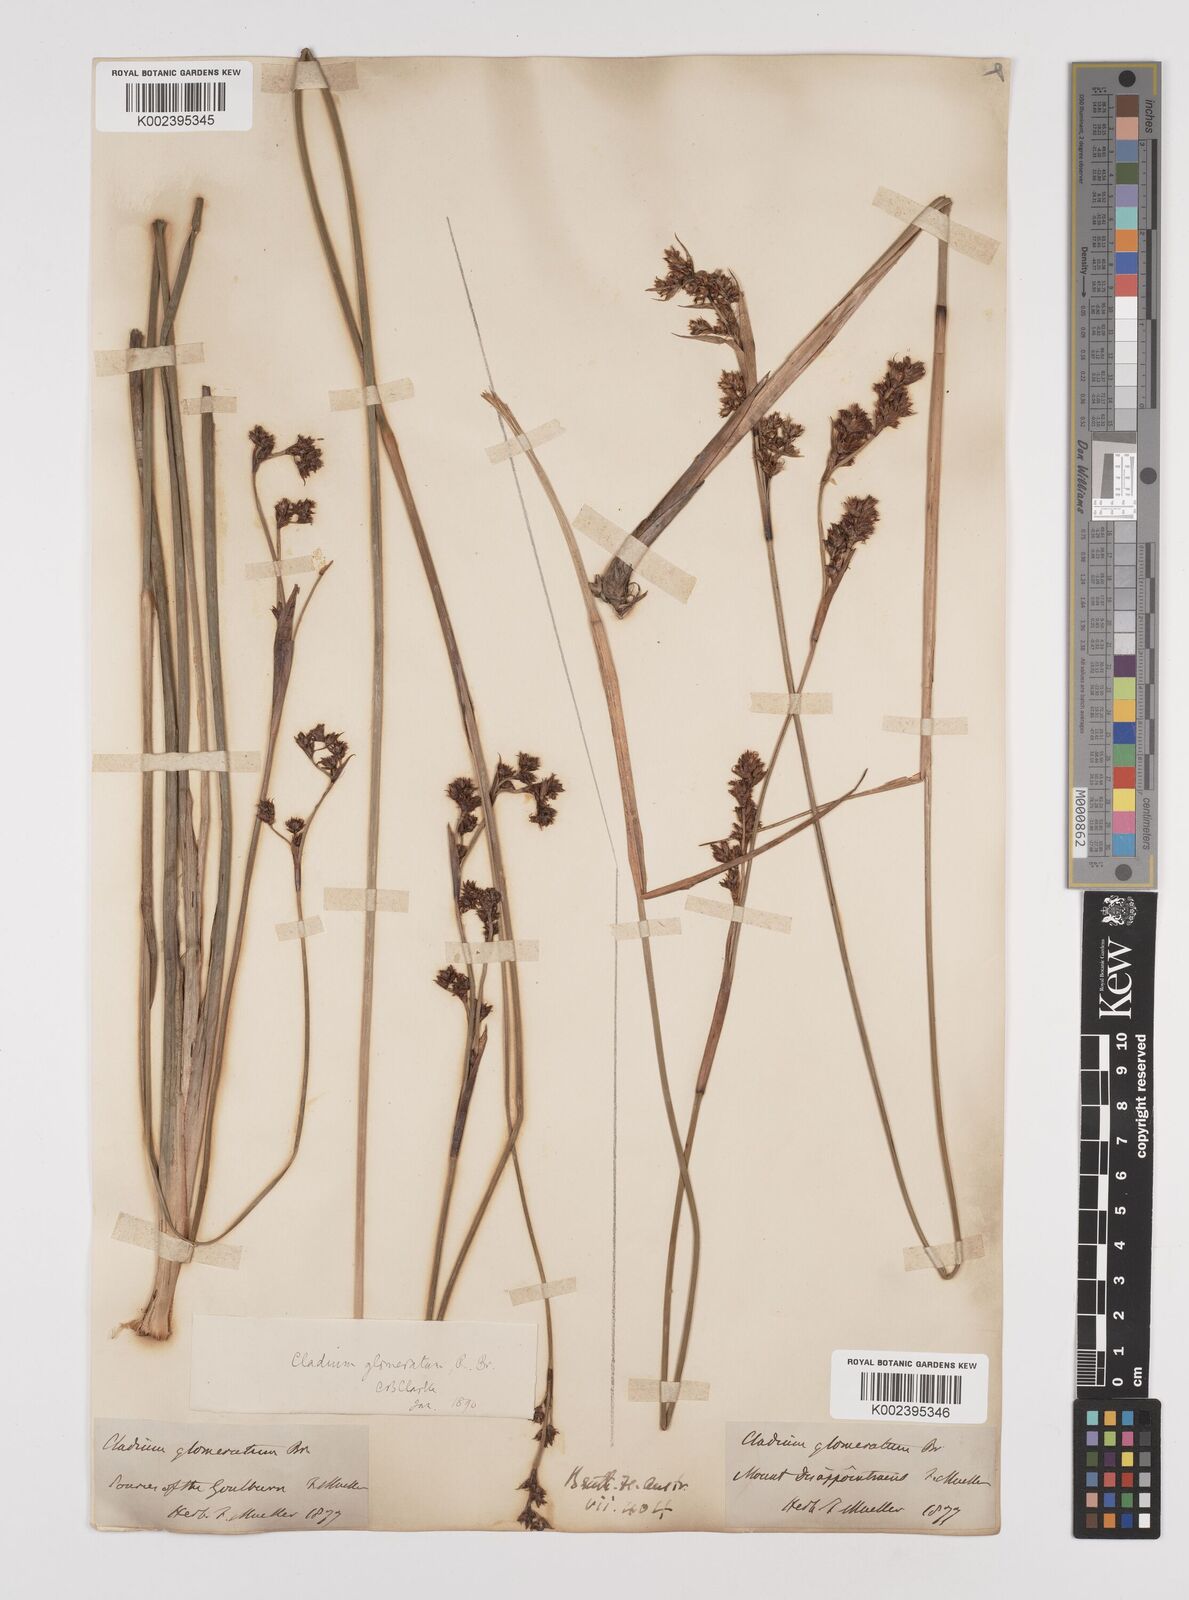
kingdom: Plantae
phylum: Tracheophyta
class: Liliopsida
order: Poales
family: Cyperaceae
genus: Machaerina
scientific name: Machaerina rubiginosa
